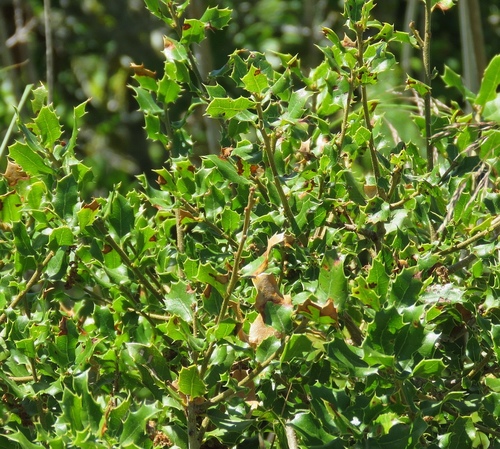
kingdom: Plantae
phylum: Tracheophyta
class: Magnoliopsida
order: Fagales
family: Fagaceae
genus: Quercus
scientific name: Quercus coccifera
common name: Kermes oak
